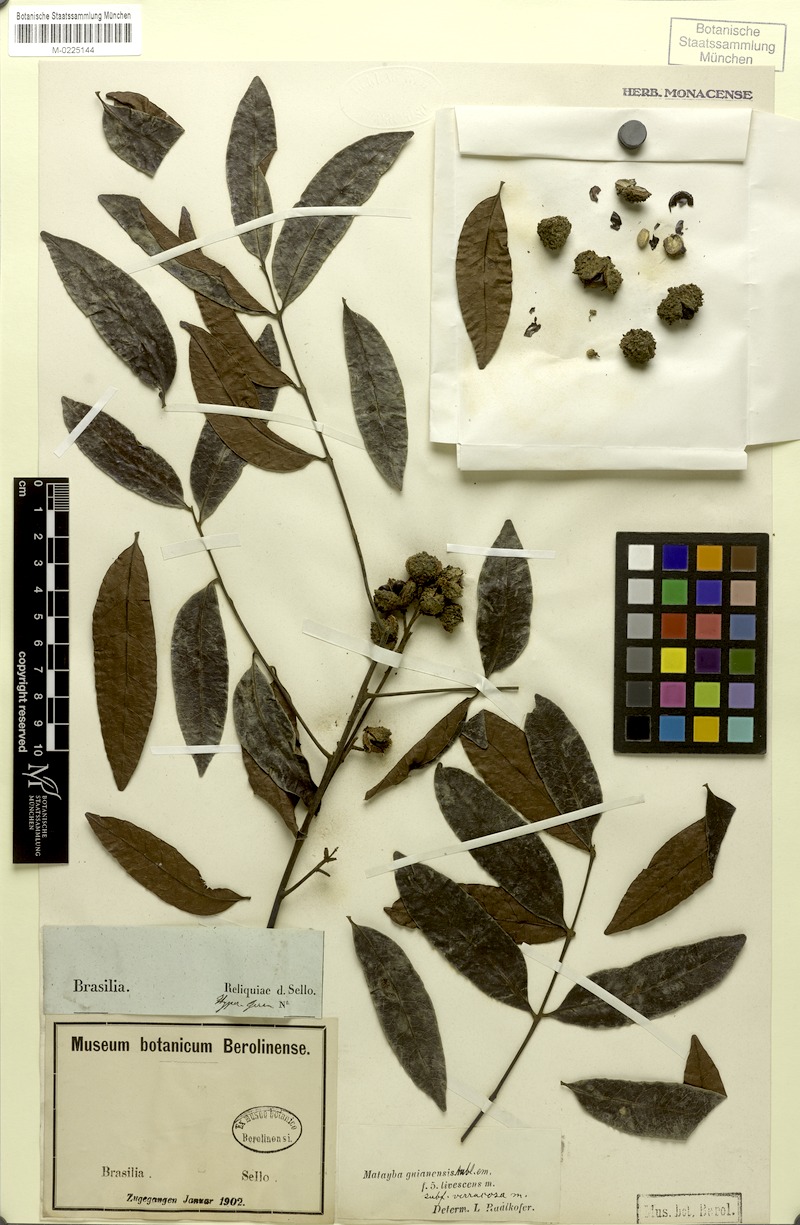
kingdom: Plantae
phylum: Tracheophyta
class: Magnoliopsida
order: Sapindales
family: Sapindaceae
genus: Matayba
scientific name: Matayba guianensis
